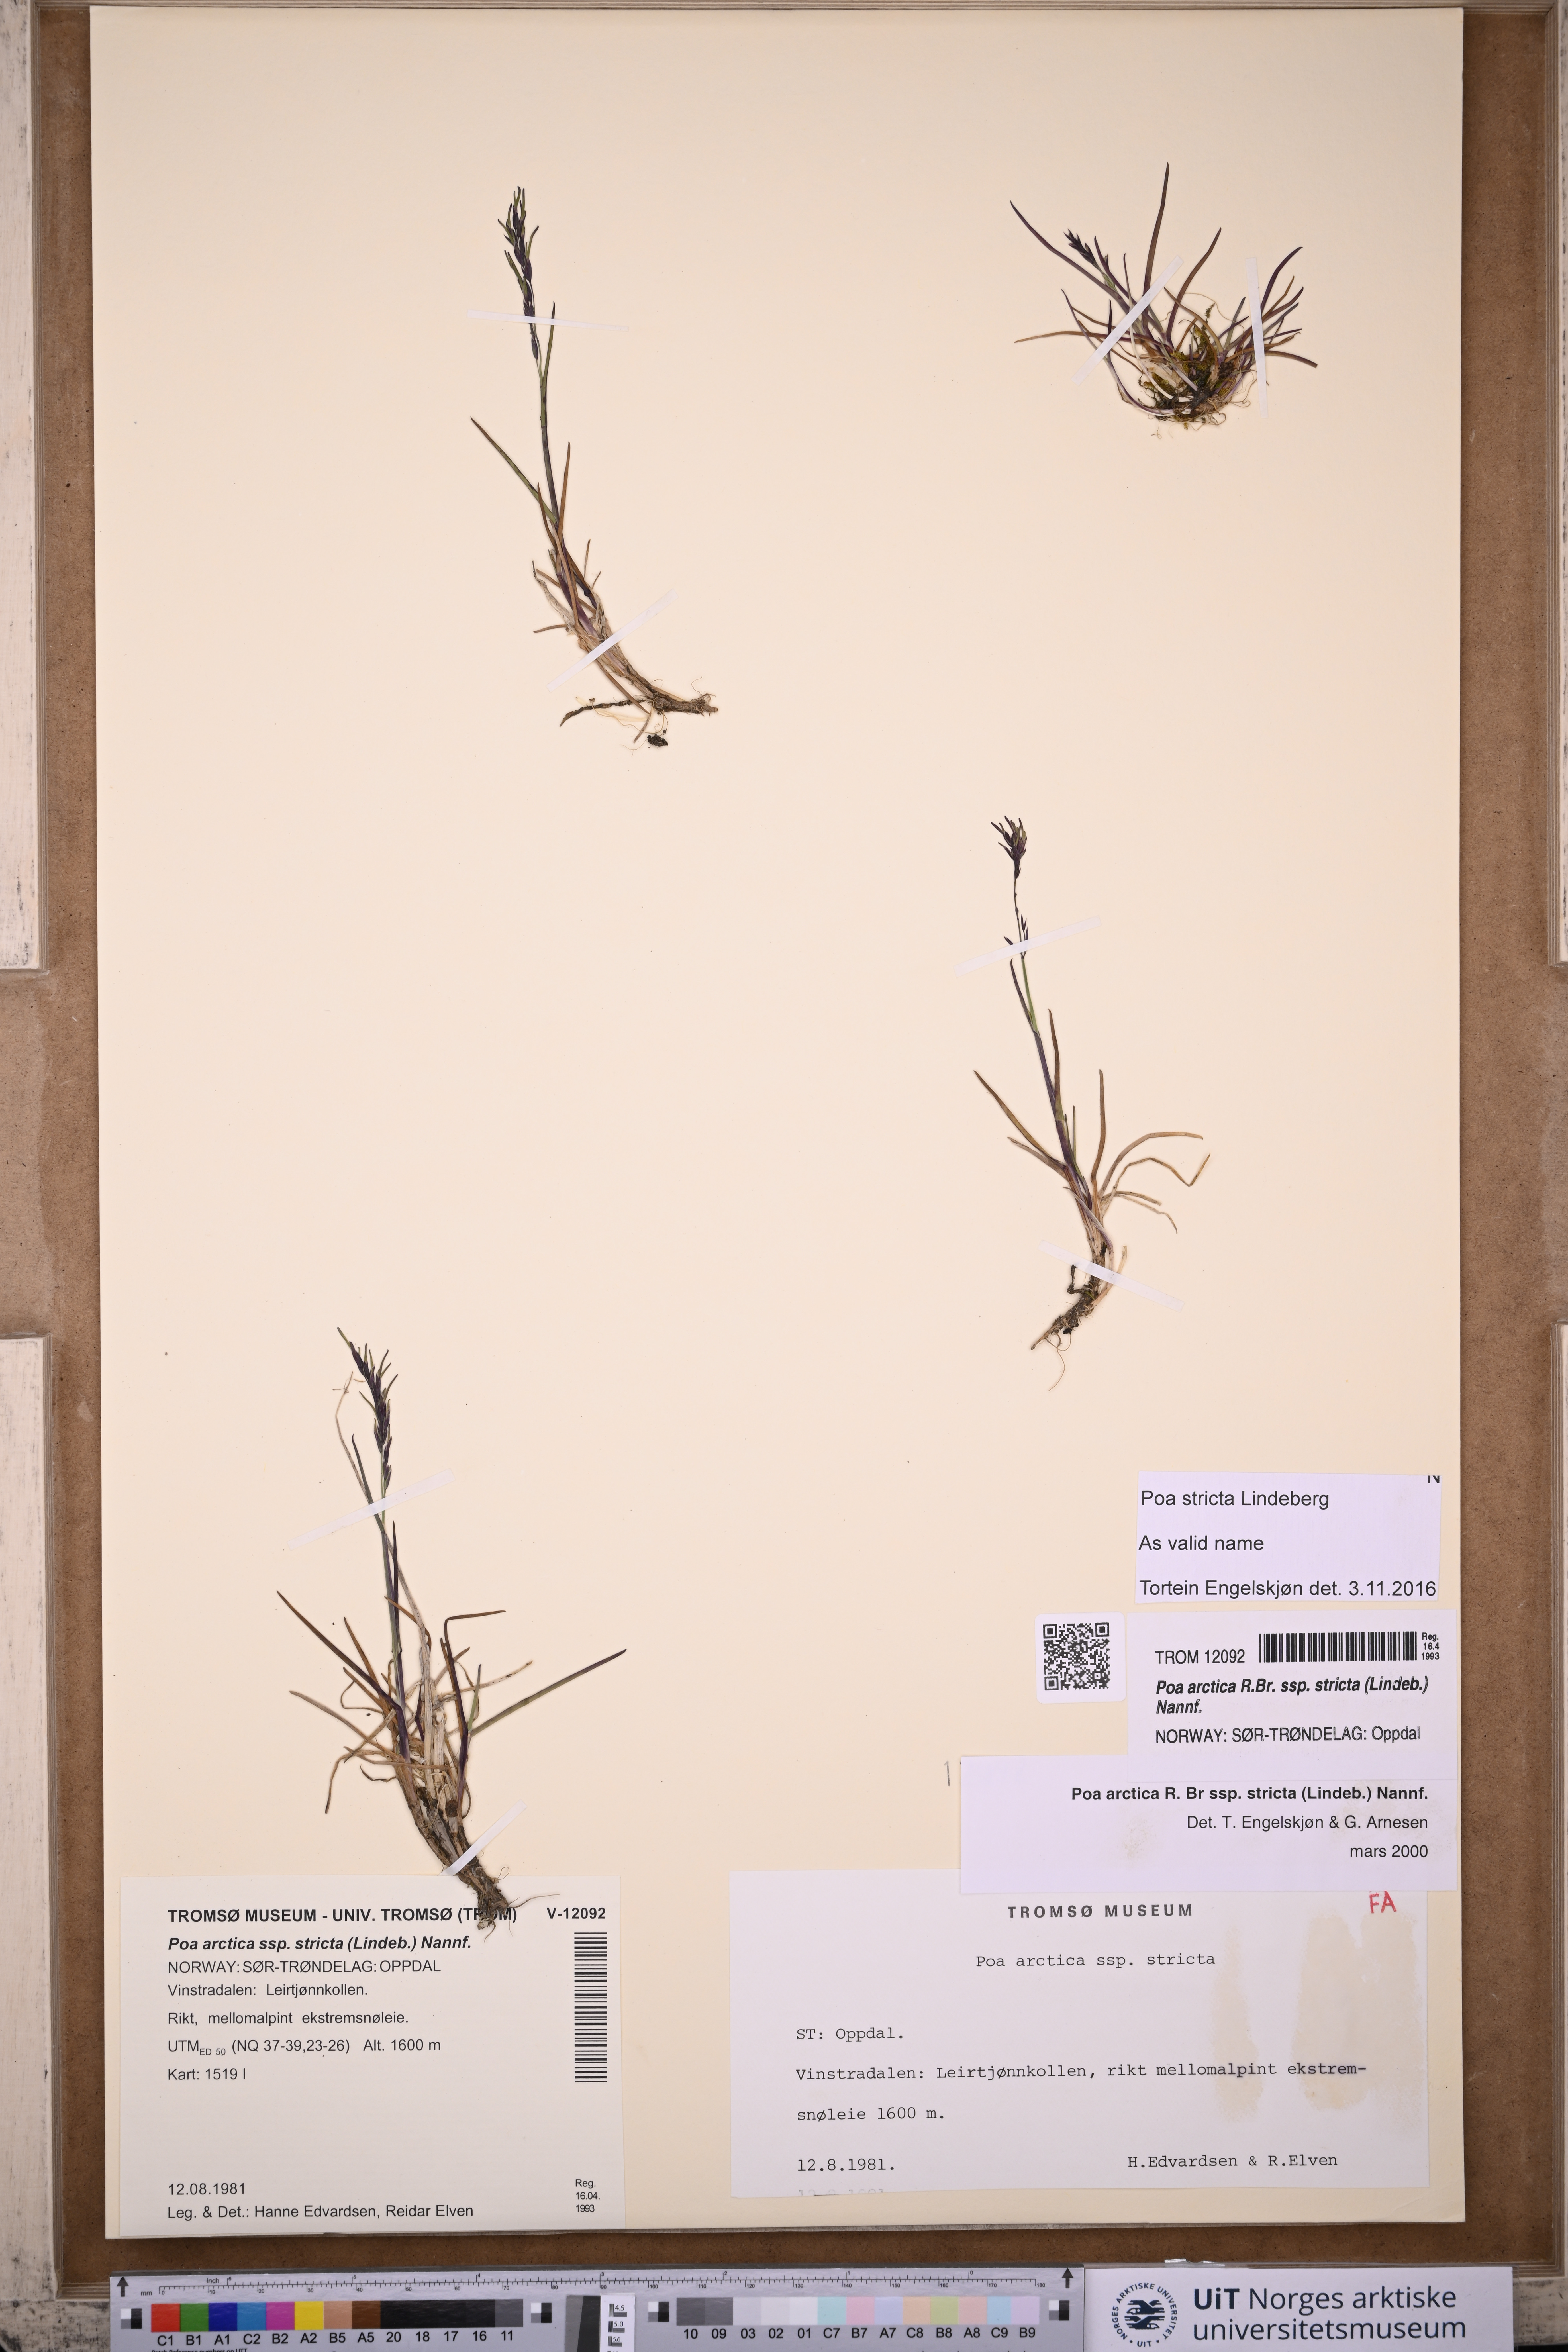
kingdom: Plantae
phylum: Tracheophyta
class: Liliopsida
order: Poales
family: Poaceae
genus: Poa
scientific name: Poa lindebergii
